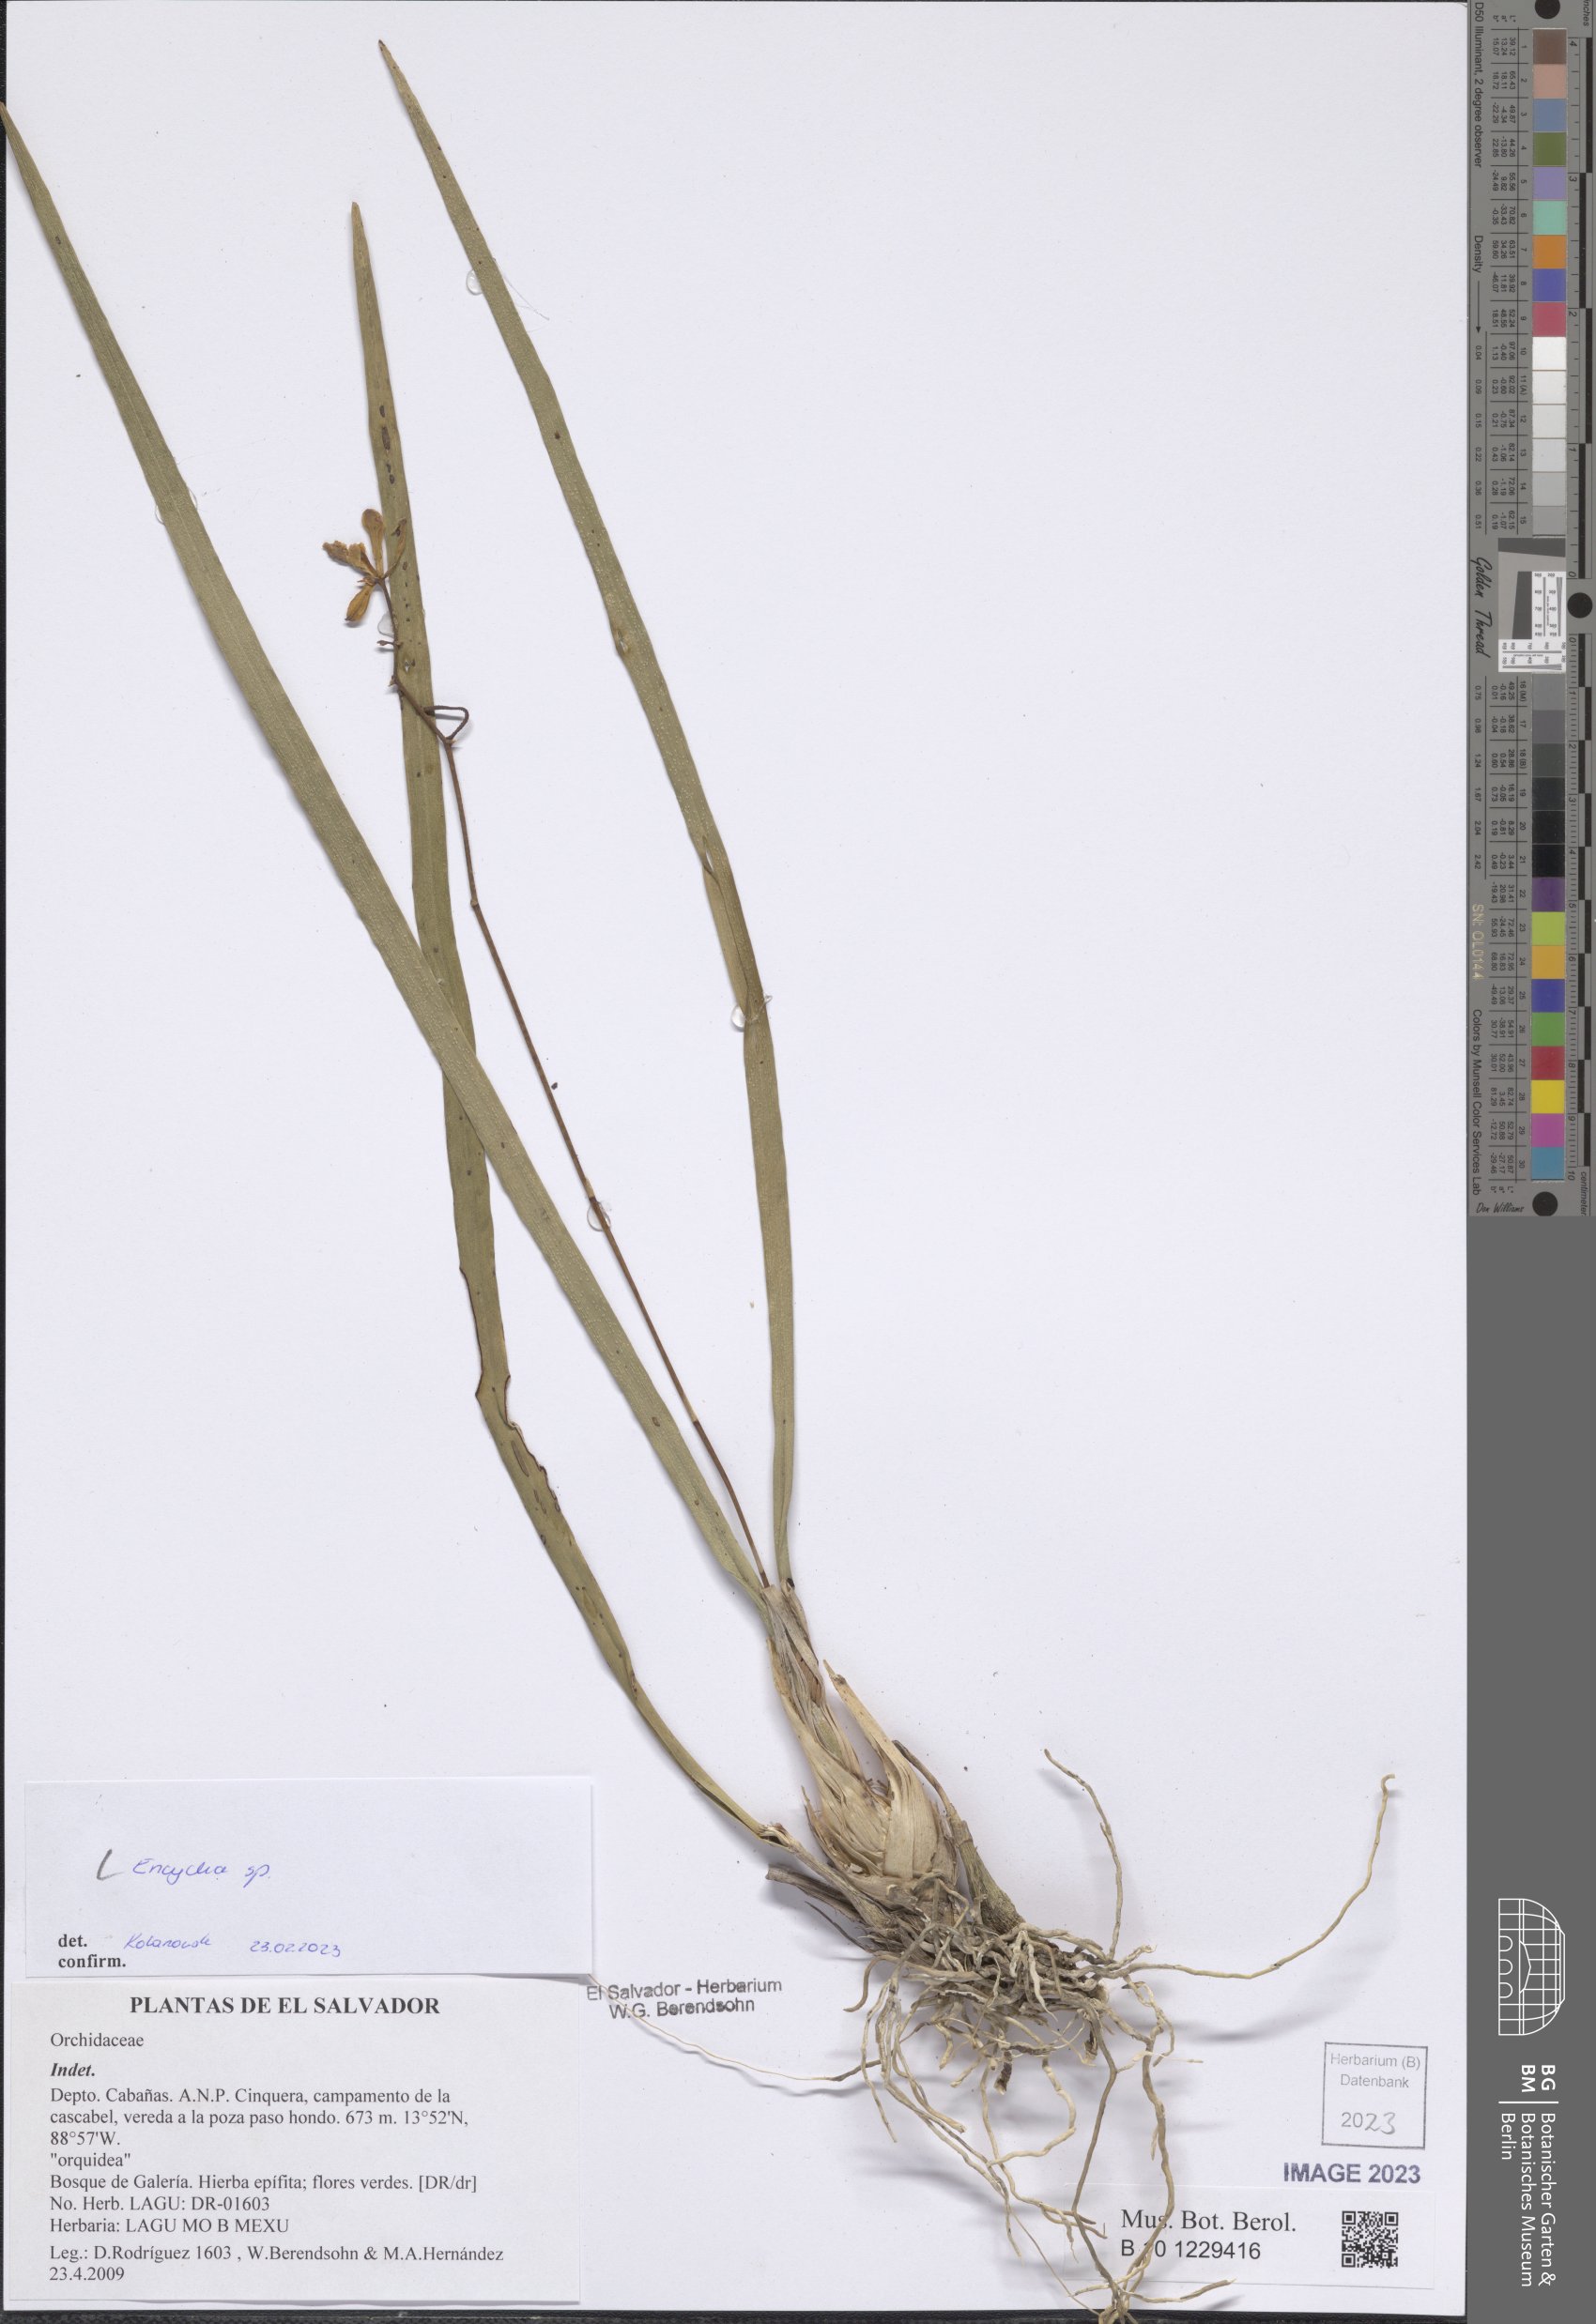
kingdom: Plantae
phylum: Tracheophyta
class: Liliopsida
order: Asparagales
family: Orchidaceae
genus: Encyclia
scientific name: Encyclia
